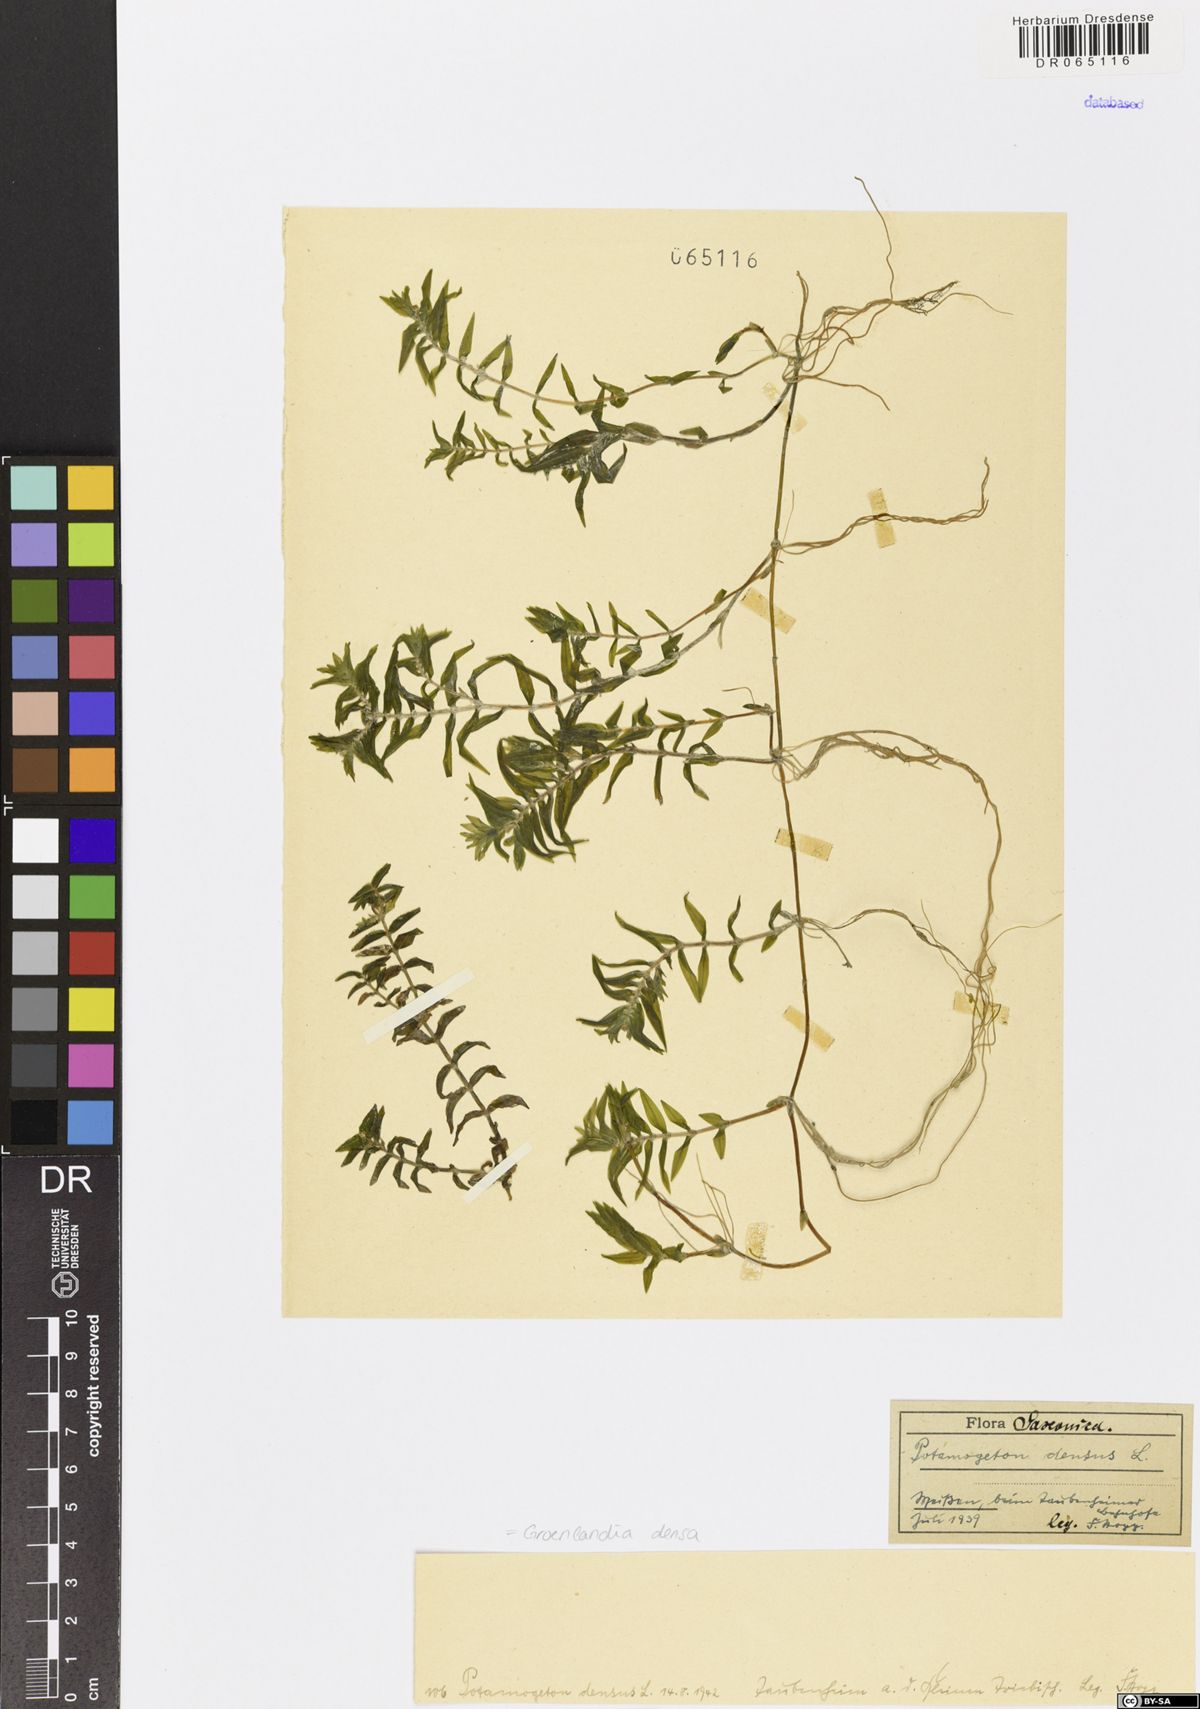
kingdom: Plantae
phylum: Tracheophyta
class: Liliopsida
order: Alismatales
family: Potamogetonaceae
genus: Groenlandia
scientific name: Groenlandia densa
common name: Opposite-leaved pondweed
